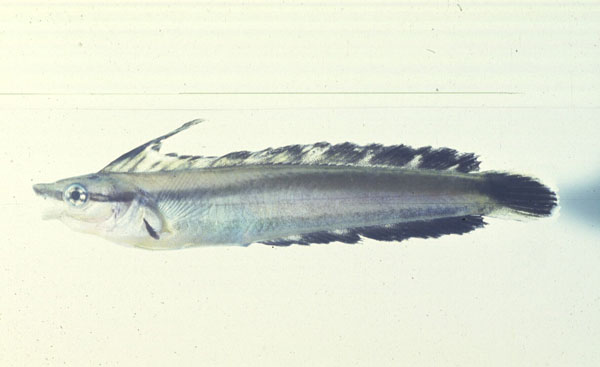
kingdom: Animalia
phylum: Chordata
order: Perciformes
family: Blenniidae
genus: Aspidontus
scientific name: Aspidontus tractus
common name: Mimic blenny
